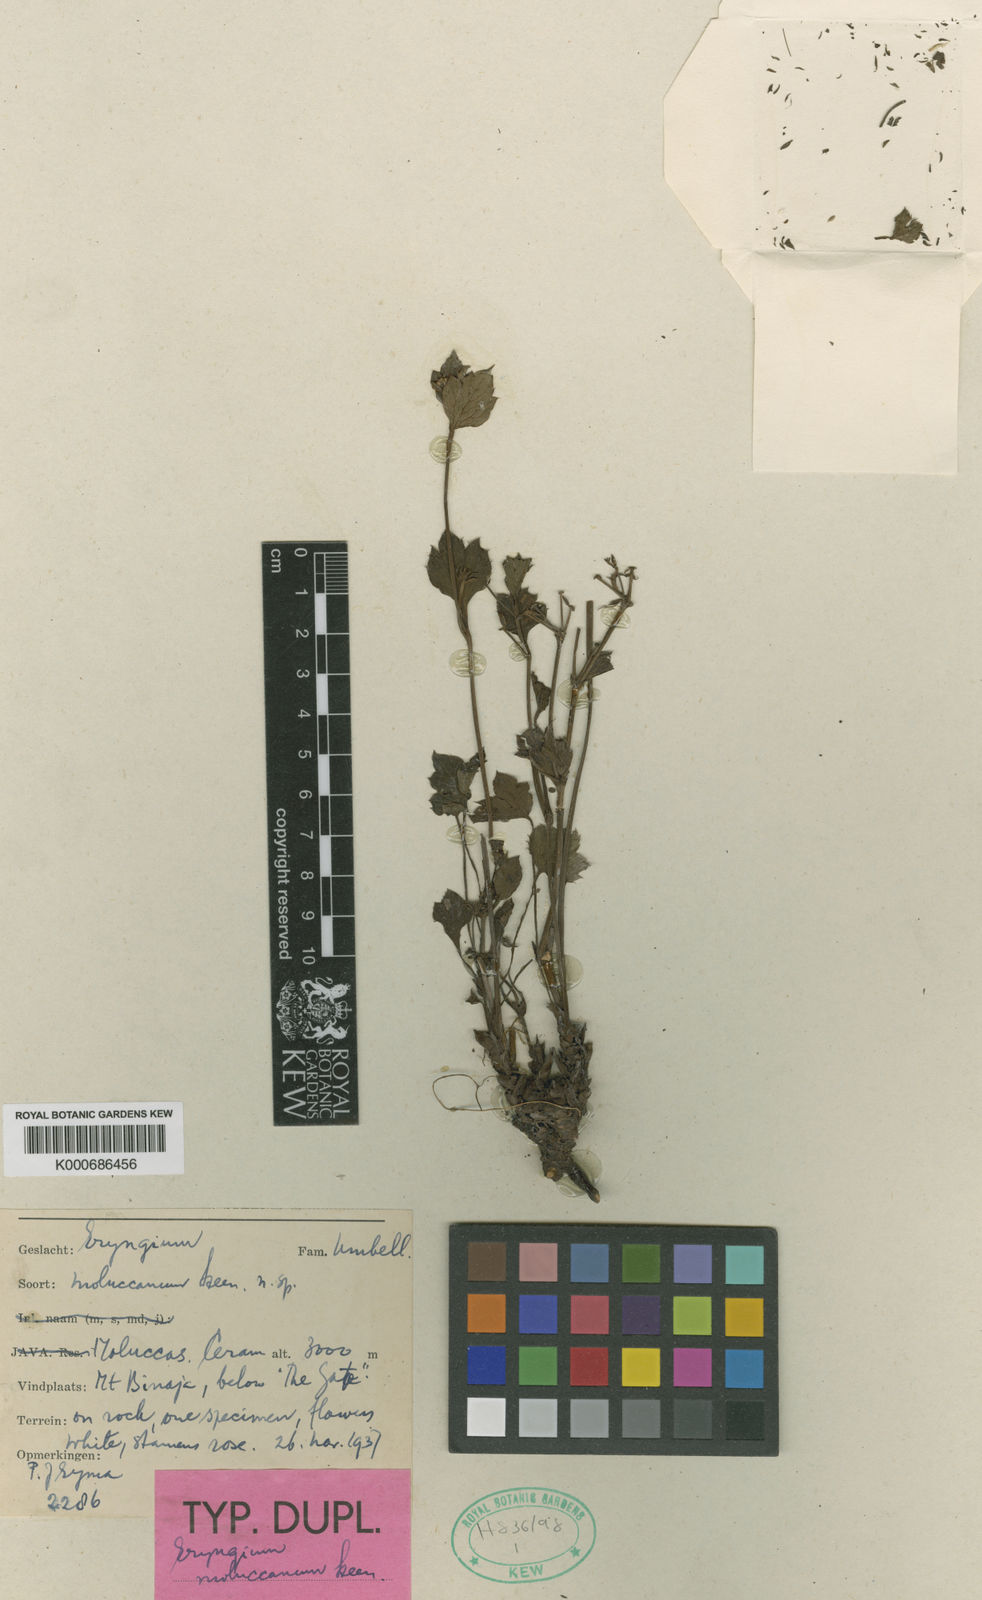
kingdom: Plantae
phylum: Tracheophyta
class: Magnoliopsida
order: Apiales
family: Apiaceae
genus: Sanicula
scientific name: Sanicula elata
